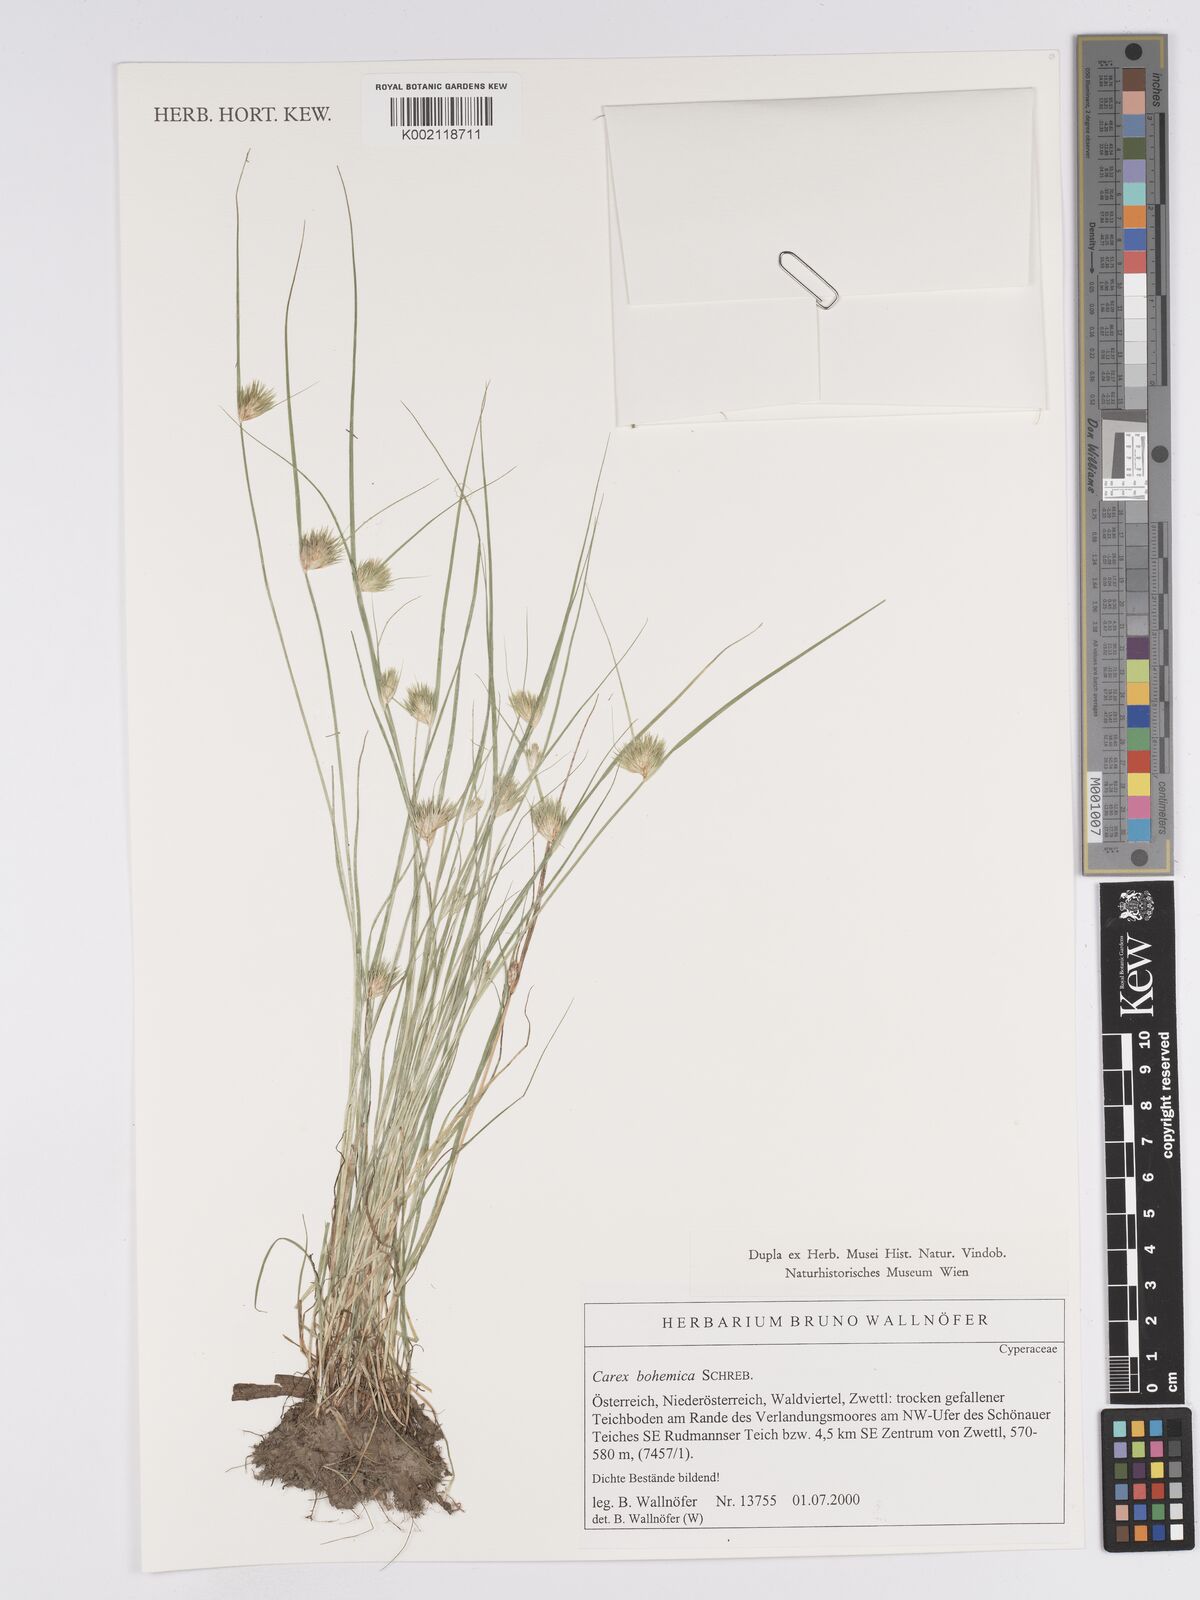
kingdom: Plantae
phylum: Tracheophyta
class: Liliopsida
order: Poales
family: Cyperaceae
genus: Carex
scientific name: Carex bohemica
